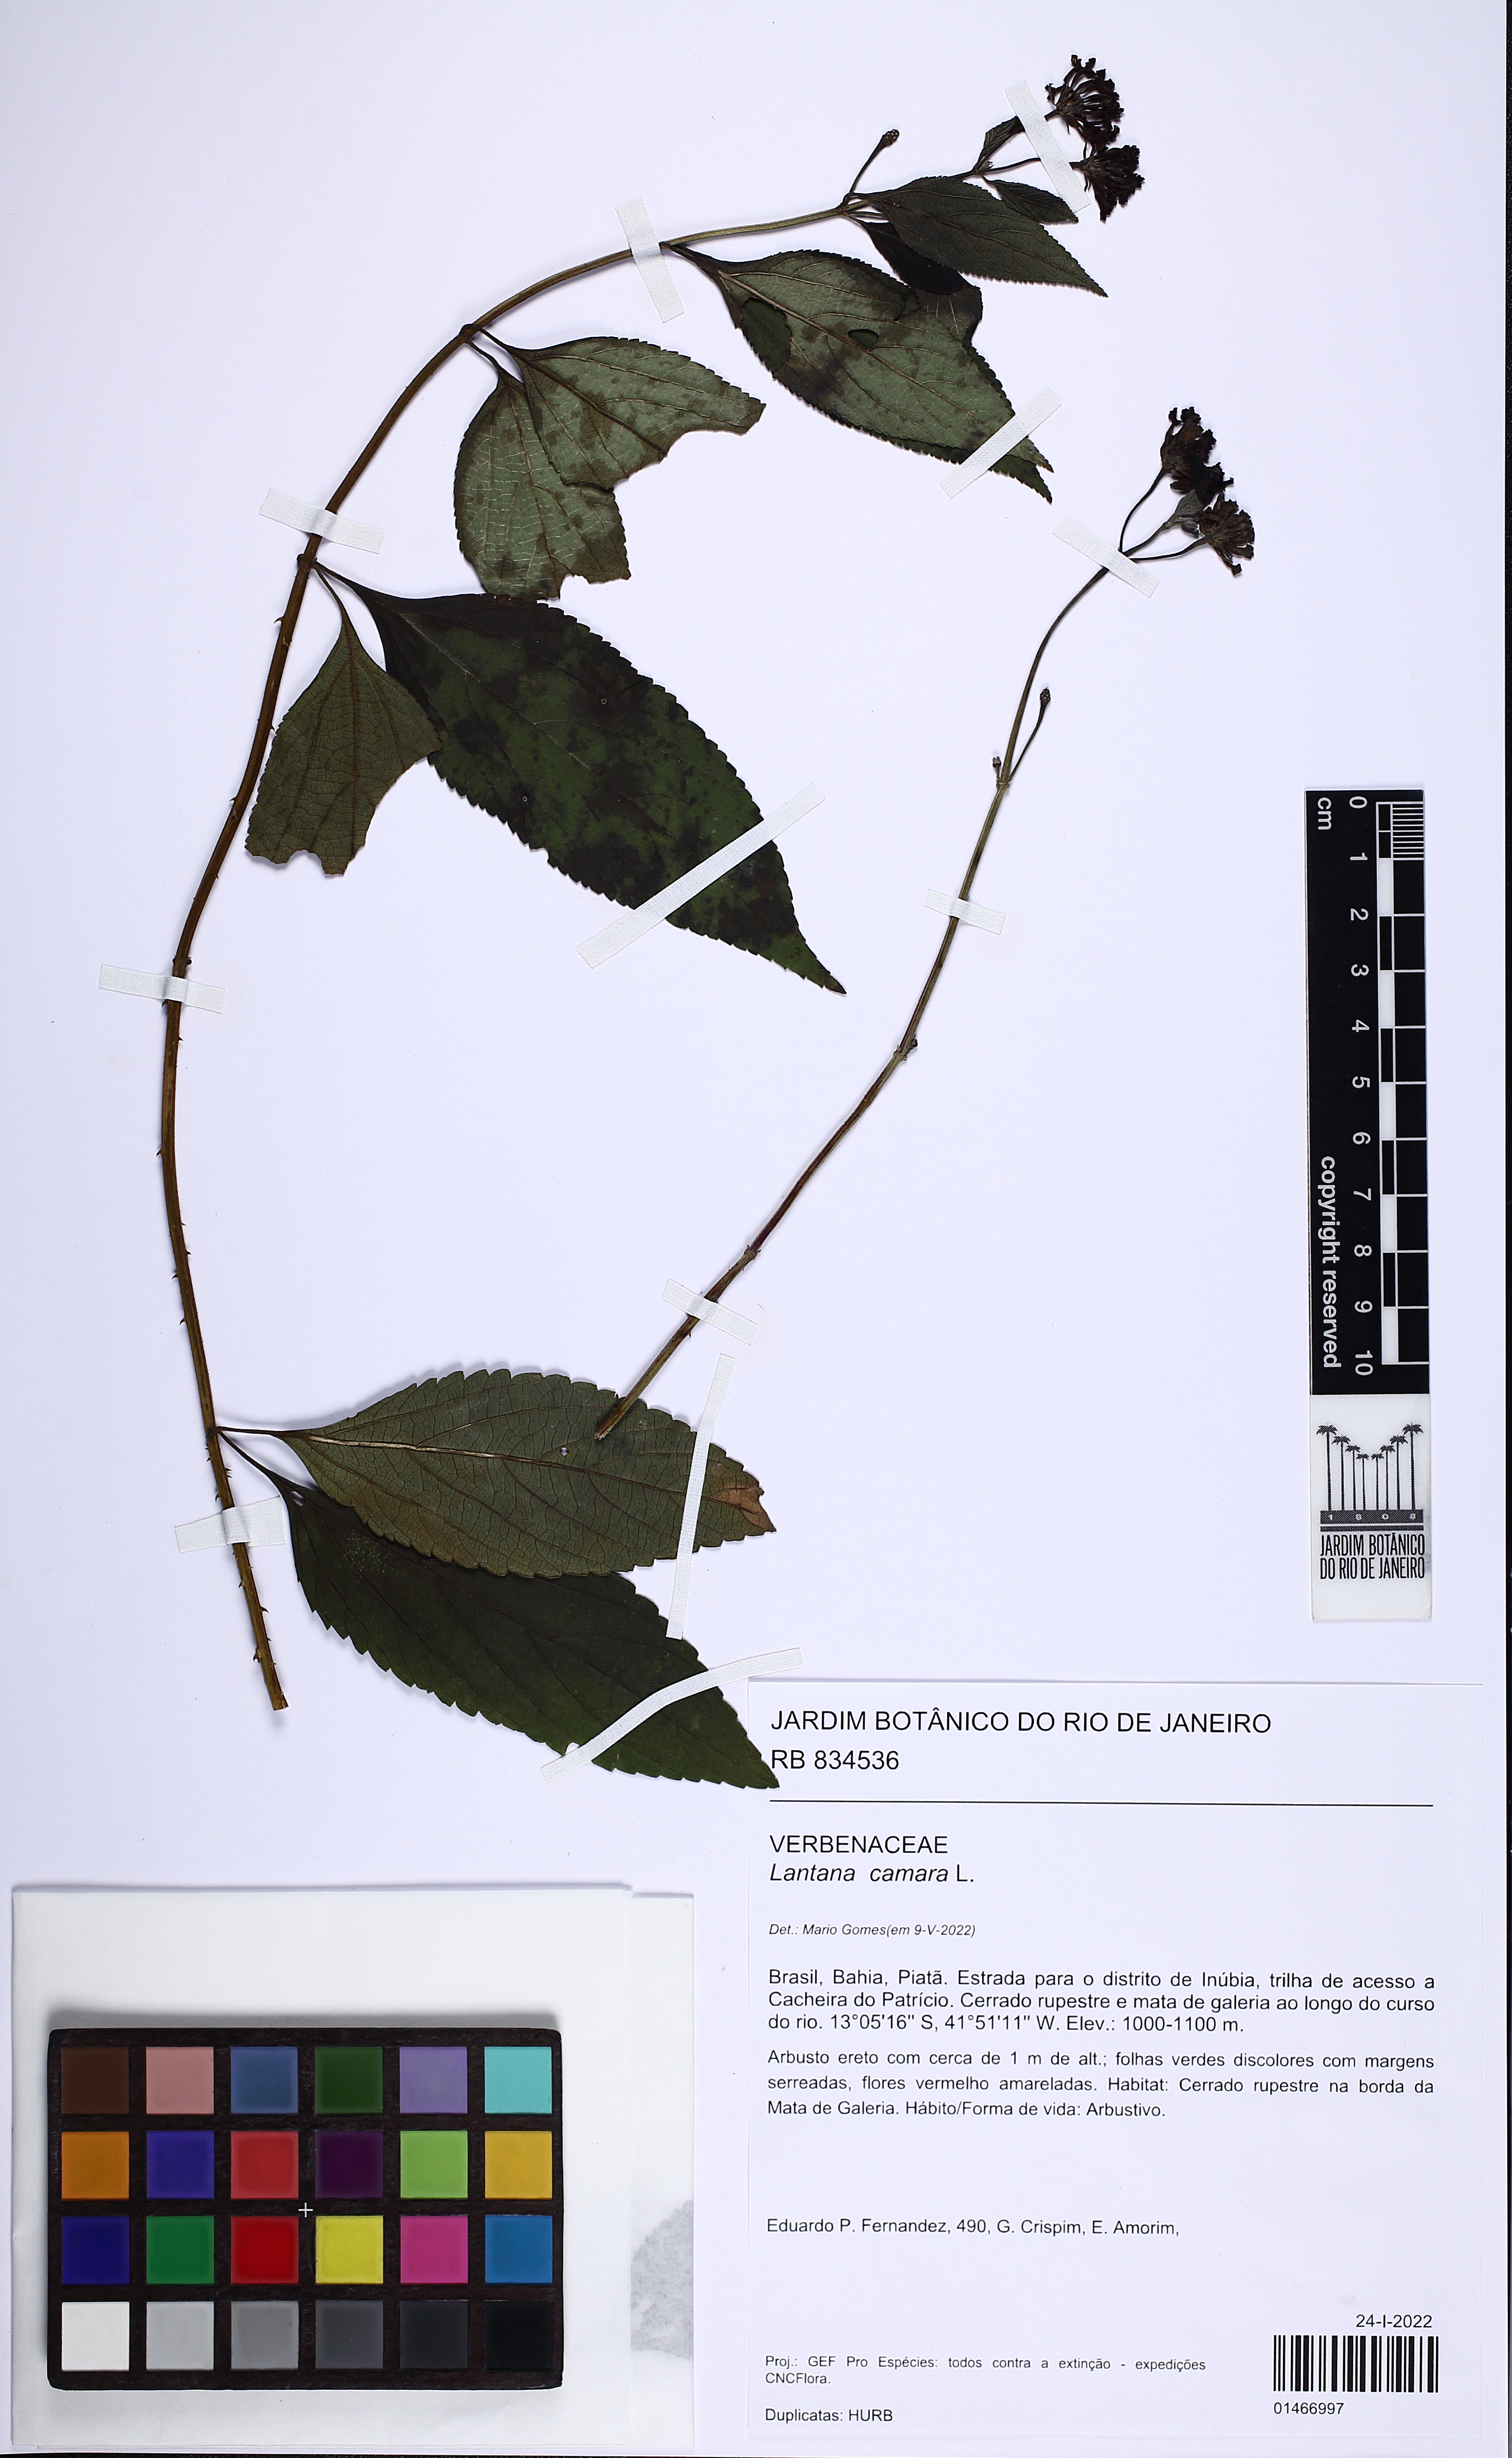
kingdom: Plantae
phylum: Tracheophyta
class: Magnoliopsida
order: Lamiales
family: Verbenaceae
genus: Lantana
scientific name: Lantana camara
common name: Lantana
